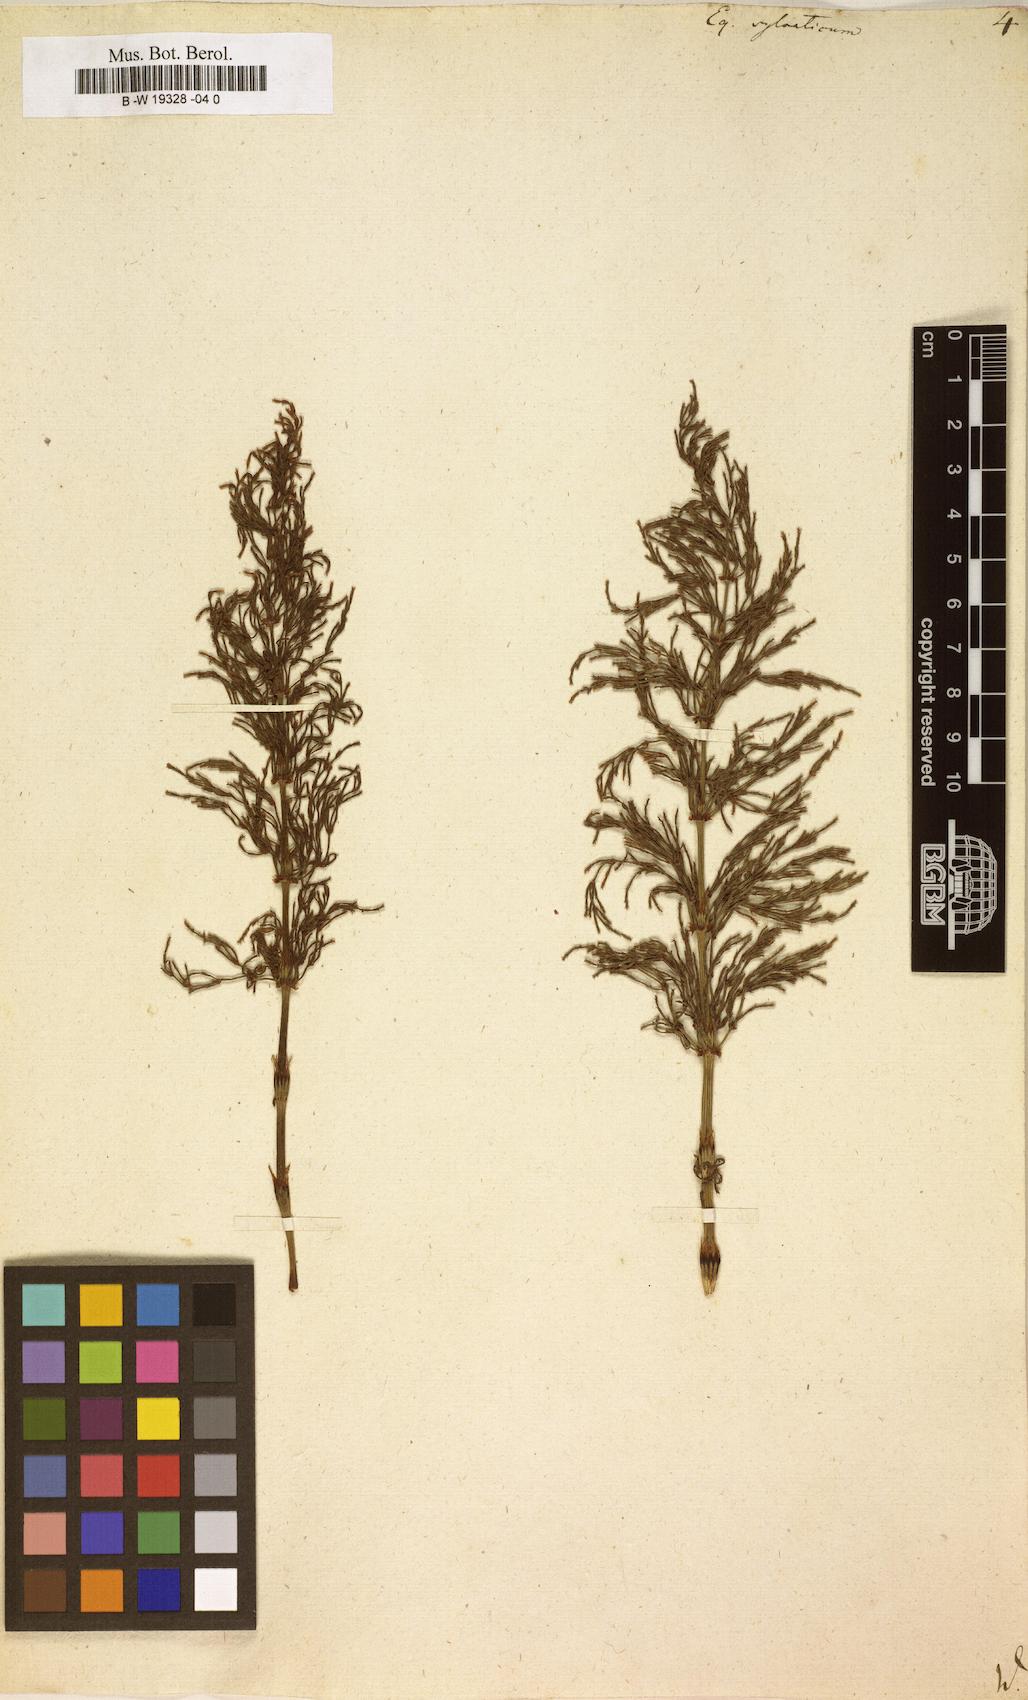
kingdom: Plantae
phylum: Tracheophyta
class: Polypodiopsida
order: Equisetales
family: Equisetaceae
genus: Equisetum
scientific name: Equisetum sylvaticum
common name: Wood horsetail
